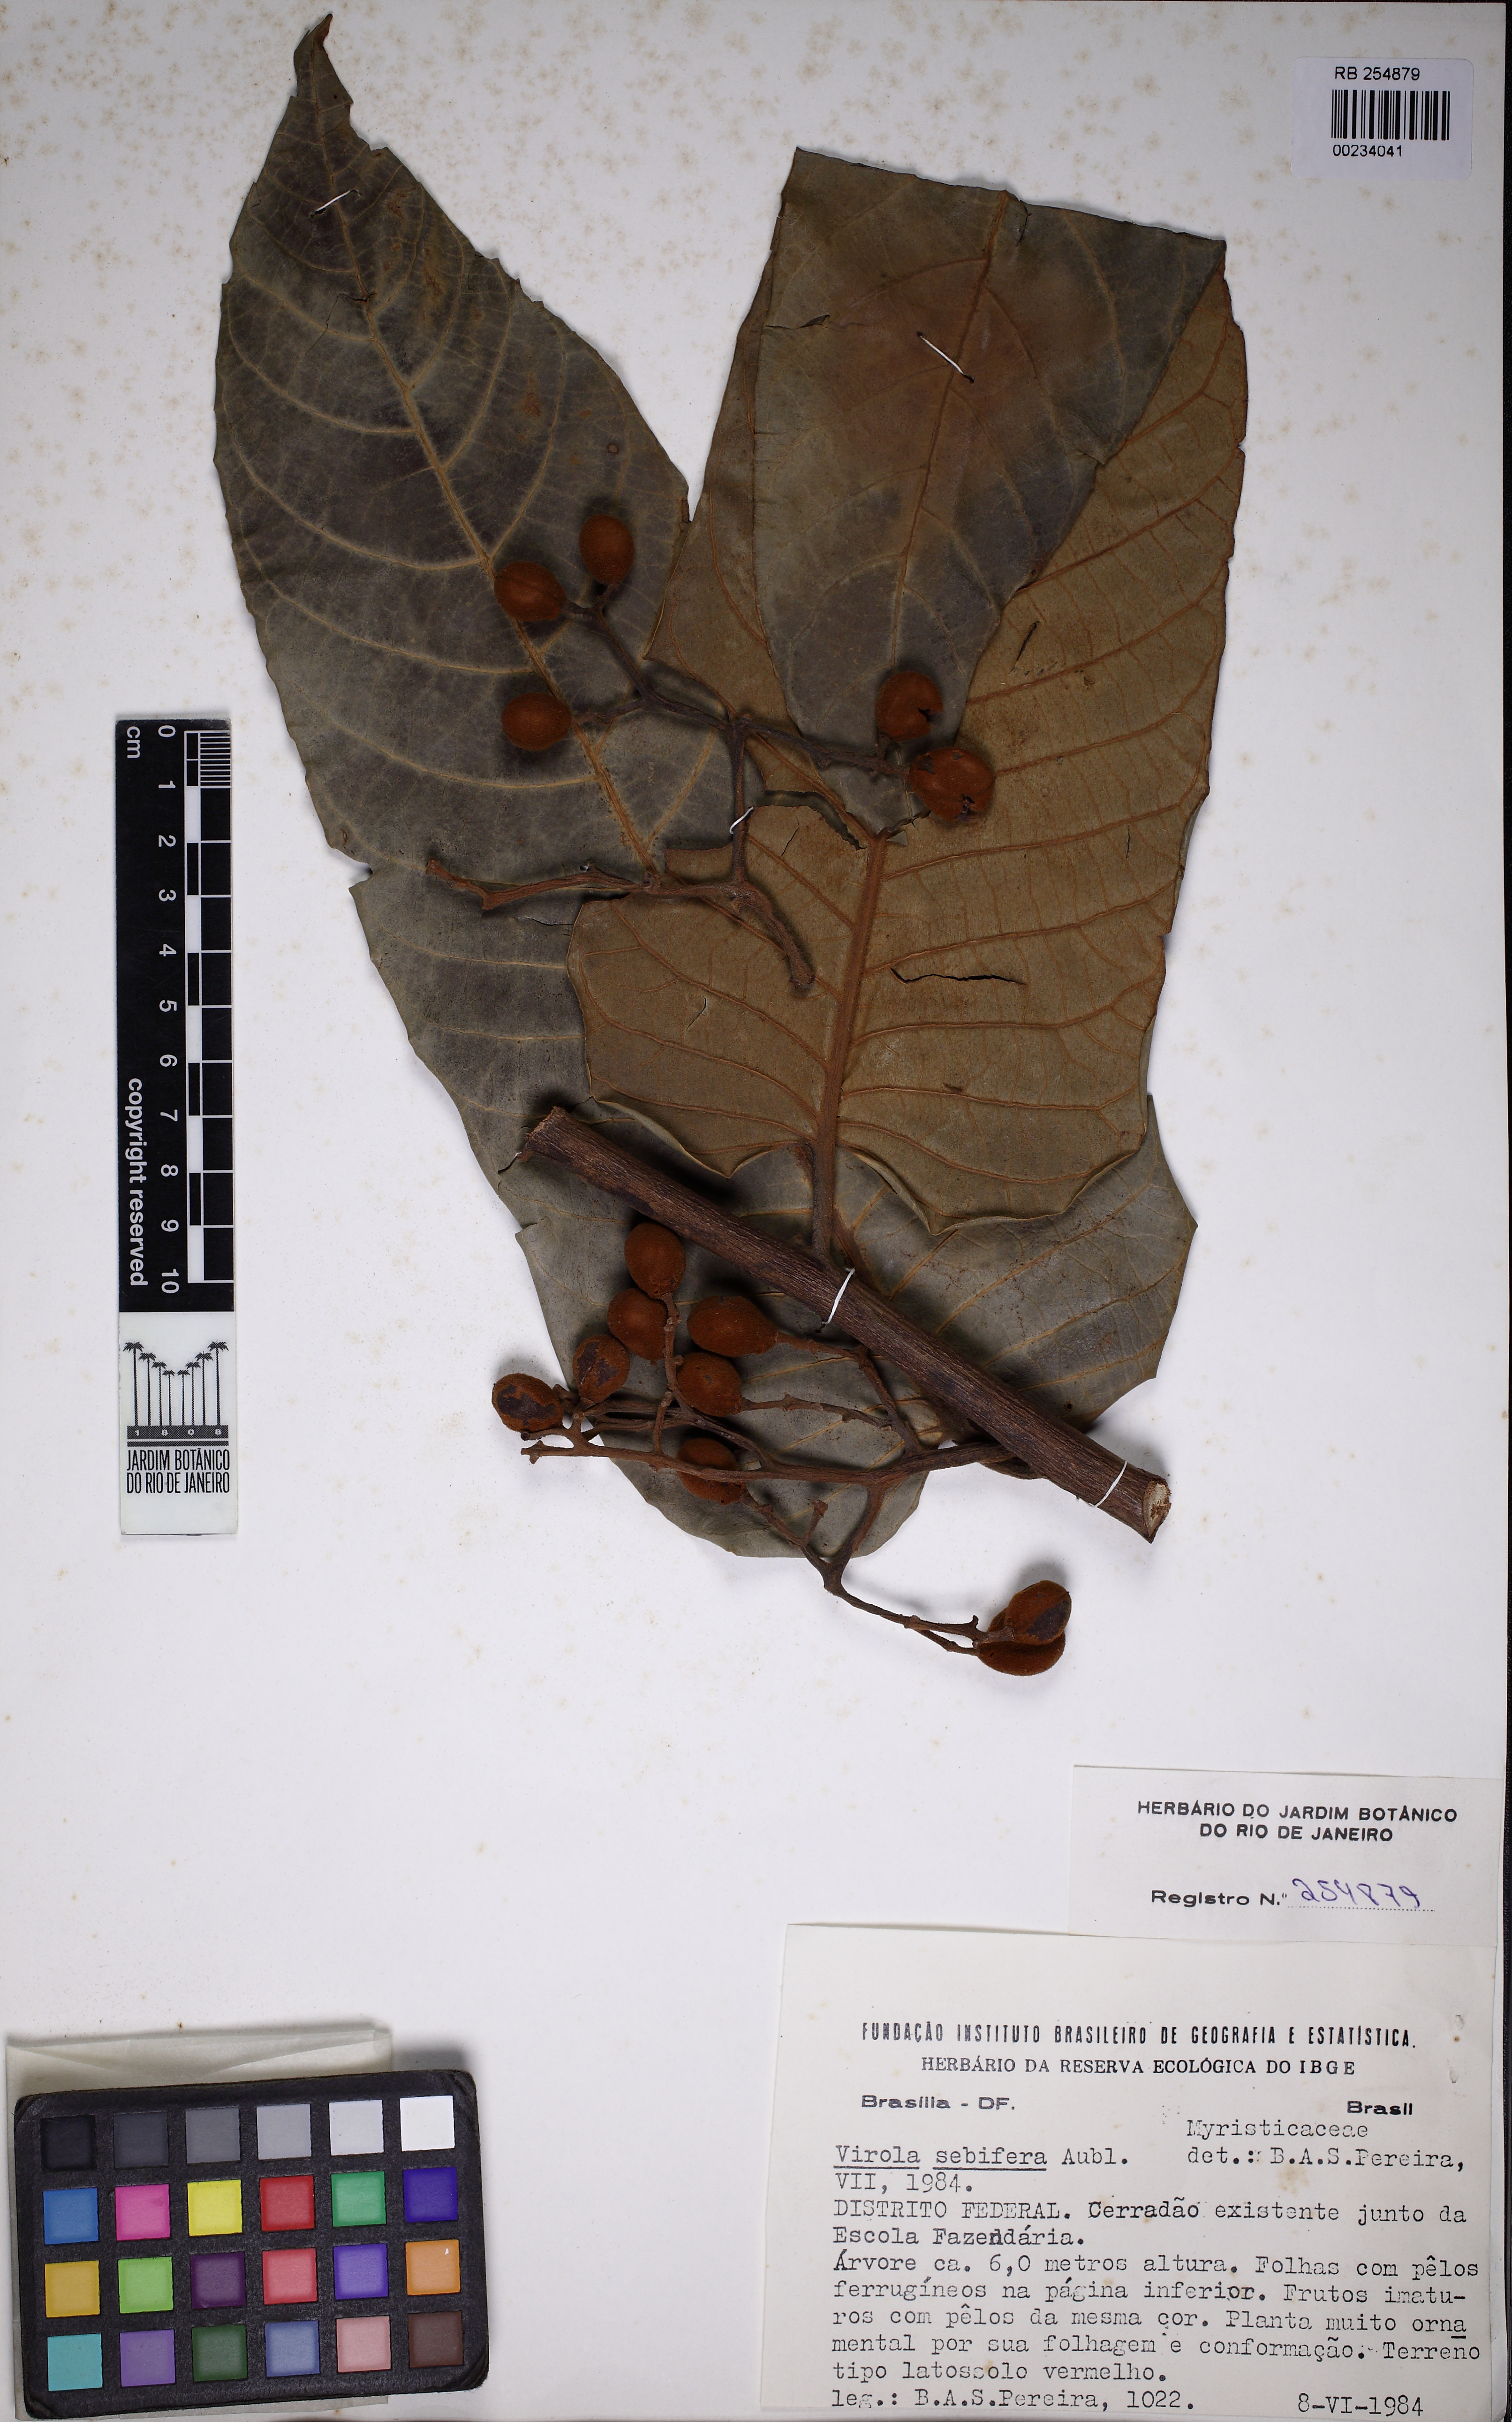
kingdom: Plantae
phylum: Tracheophyta
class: Magnoliopsida
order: Magnoliales
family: Myristicaceae
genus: Virola
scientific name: Virola sebifera
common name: Red ucuuba
